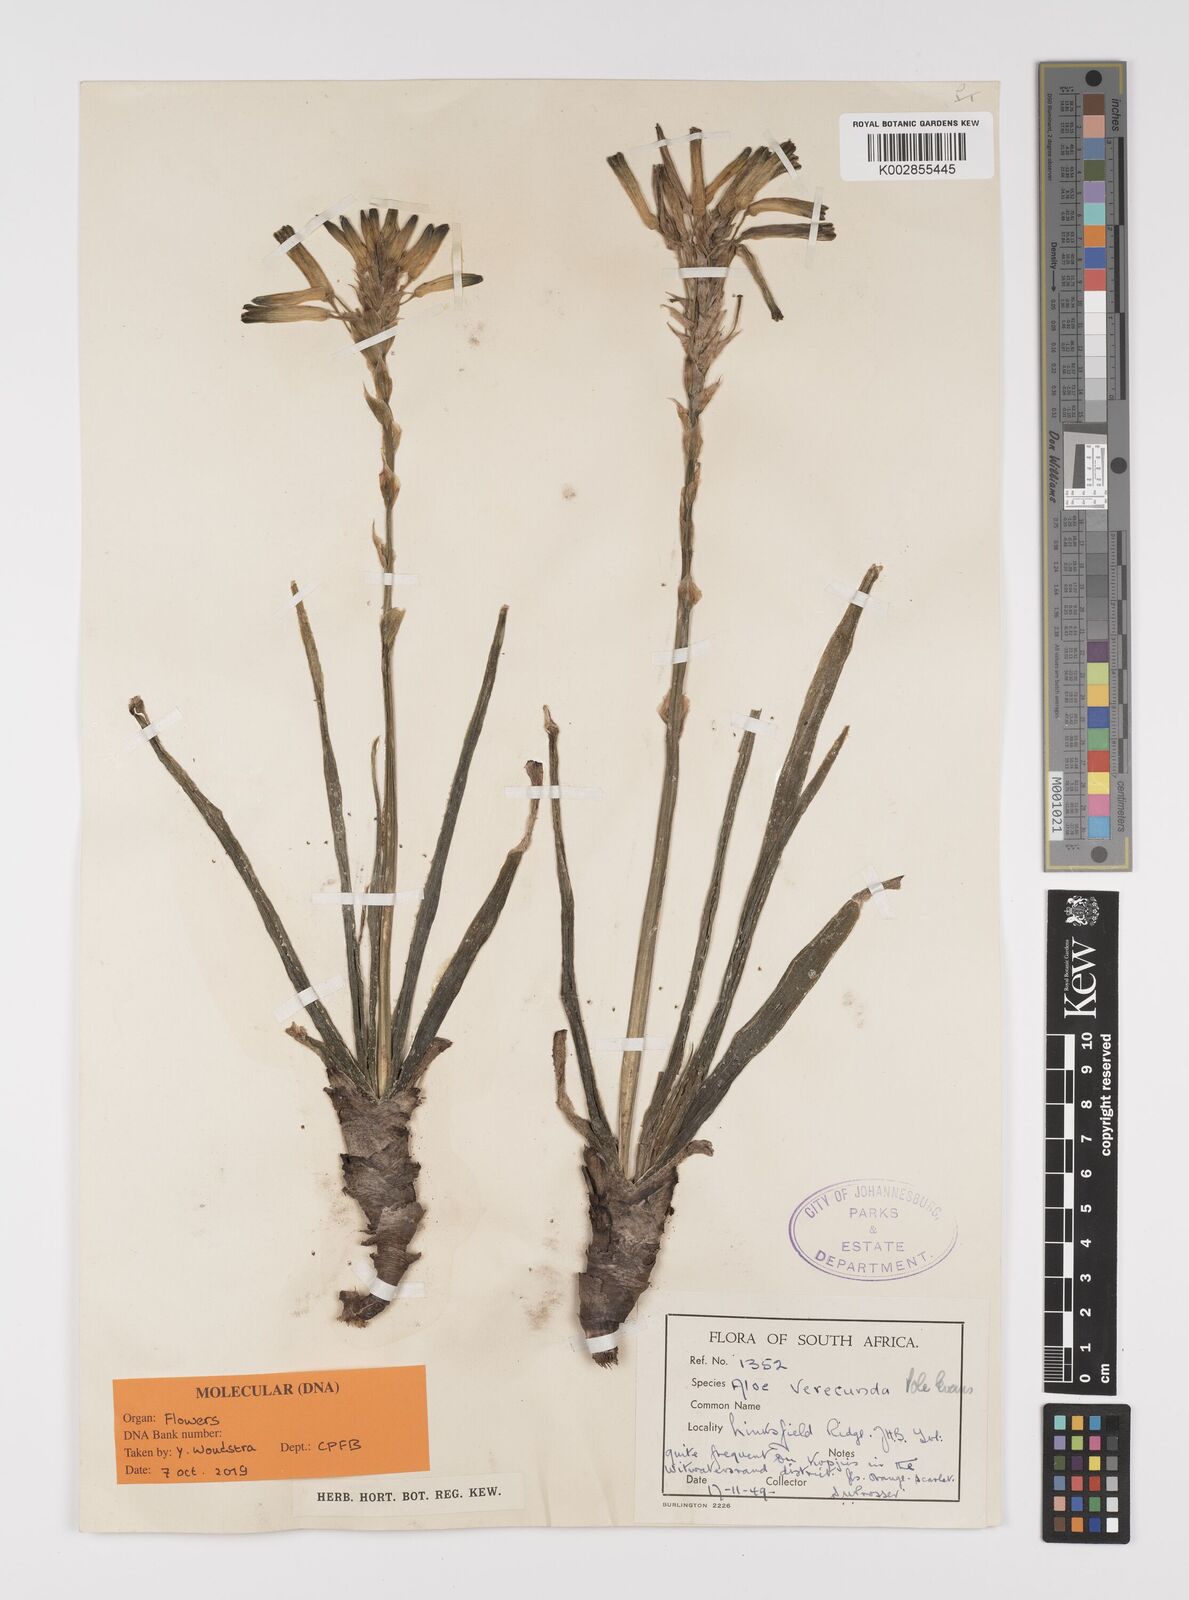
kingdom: Plantae
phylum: Tracheophyta
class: Liliopsida
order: Asparagales
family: Asphodelaceae
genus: Aloe
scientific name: Aloe verecunda
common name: Grass aloe
